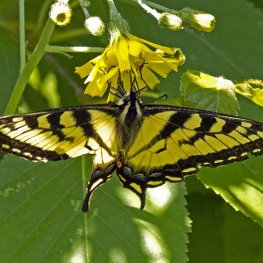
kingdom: Animalia
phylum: Arthropoda
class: Insecta
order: Lepidoptera
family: Papilionidae
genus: Pterourus
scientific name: Pterourus canadensis
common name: Canadian Tiger Swallowtail
